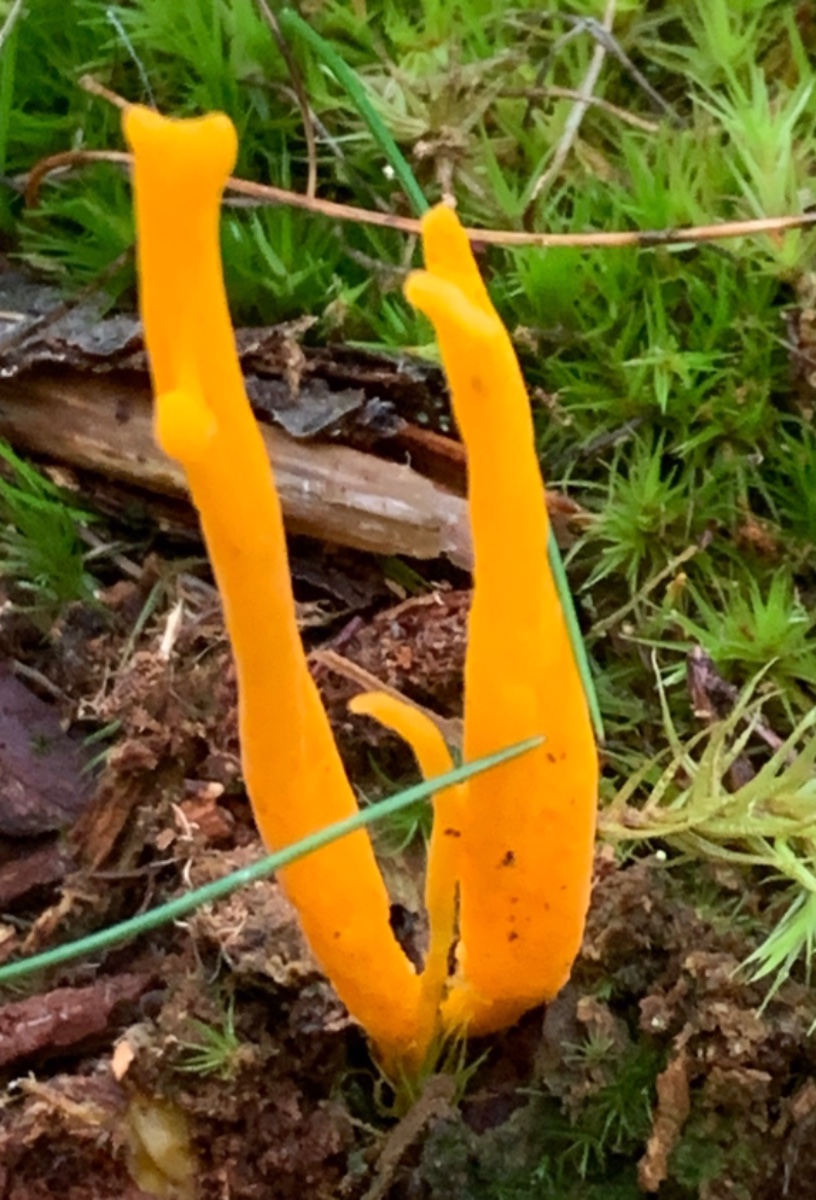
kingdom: Fungi
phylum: Basidiomycota
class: Dacrymycetes
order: Dacrymycetales
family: Dacrymycetaceae
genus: Calocera
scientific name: Calocera viscosa
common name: almindelig guldgaffel
